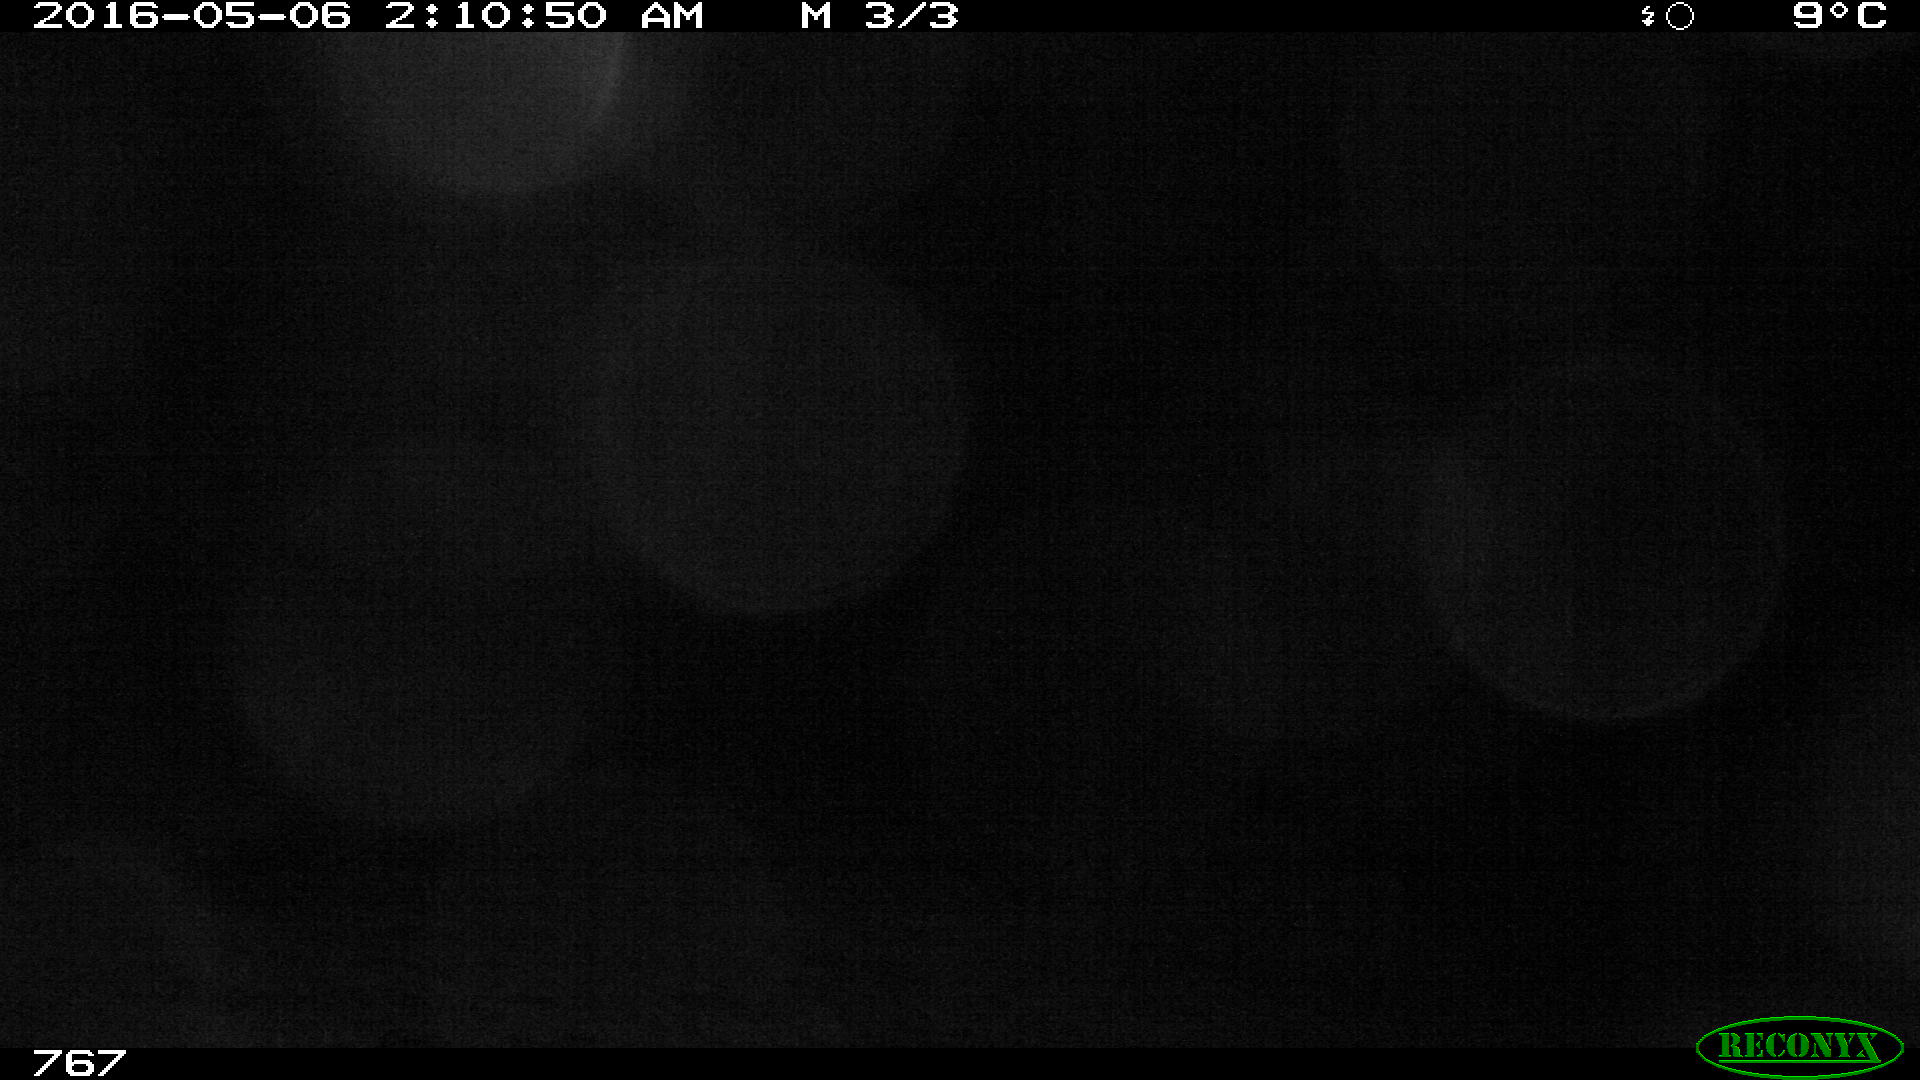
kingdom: Animalia
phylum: Chordata
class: Mammalia
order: Artiodactyla
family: Bovidae
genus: Bos
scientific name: Bos taurus
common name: Domesticated cattle
